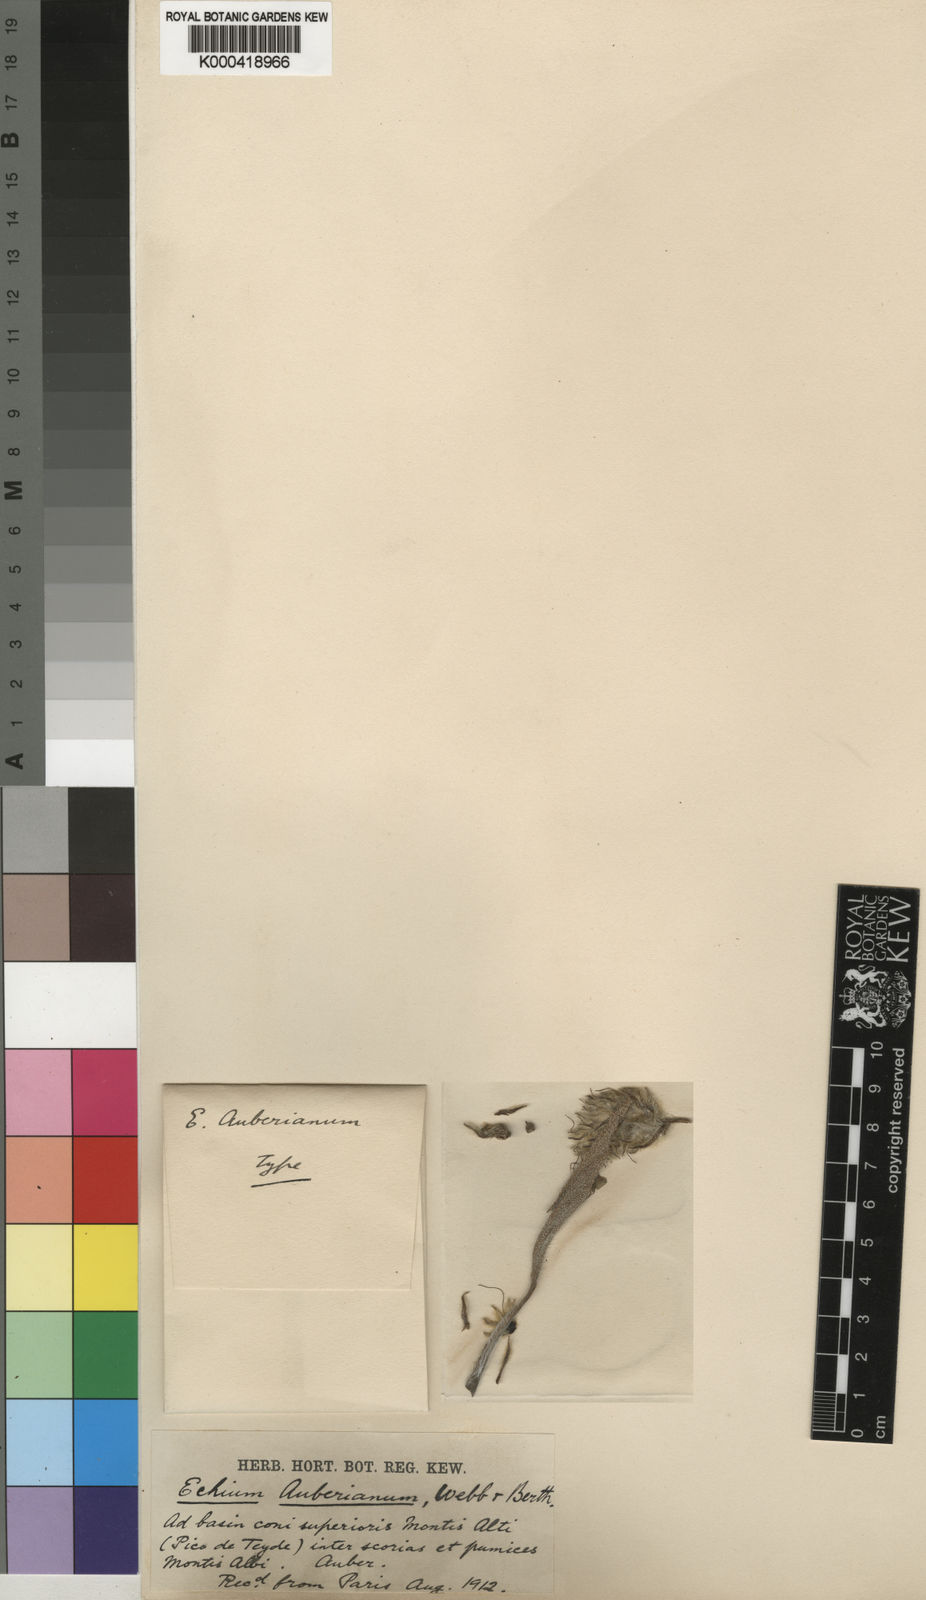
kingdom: Plantae
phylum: Tracheophyta
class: Magnoliopsida
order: Boraginales
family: Boraginaceae
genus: Echium
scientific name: Echium auberianum
